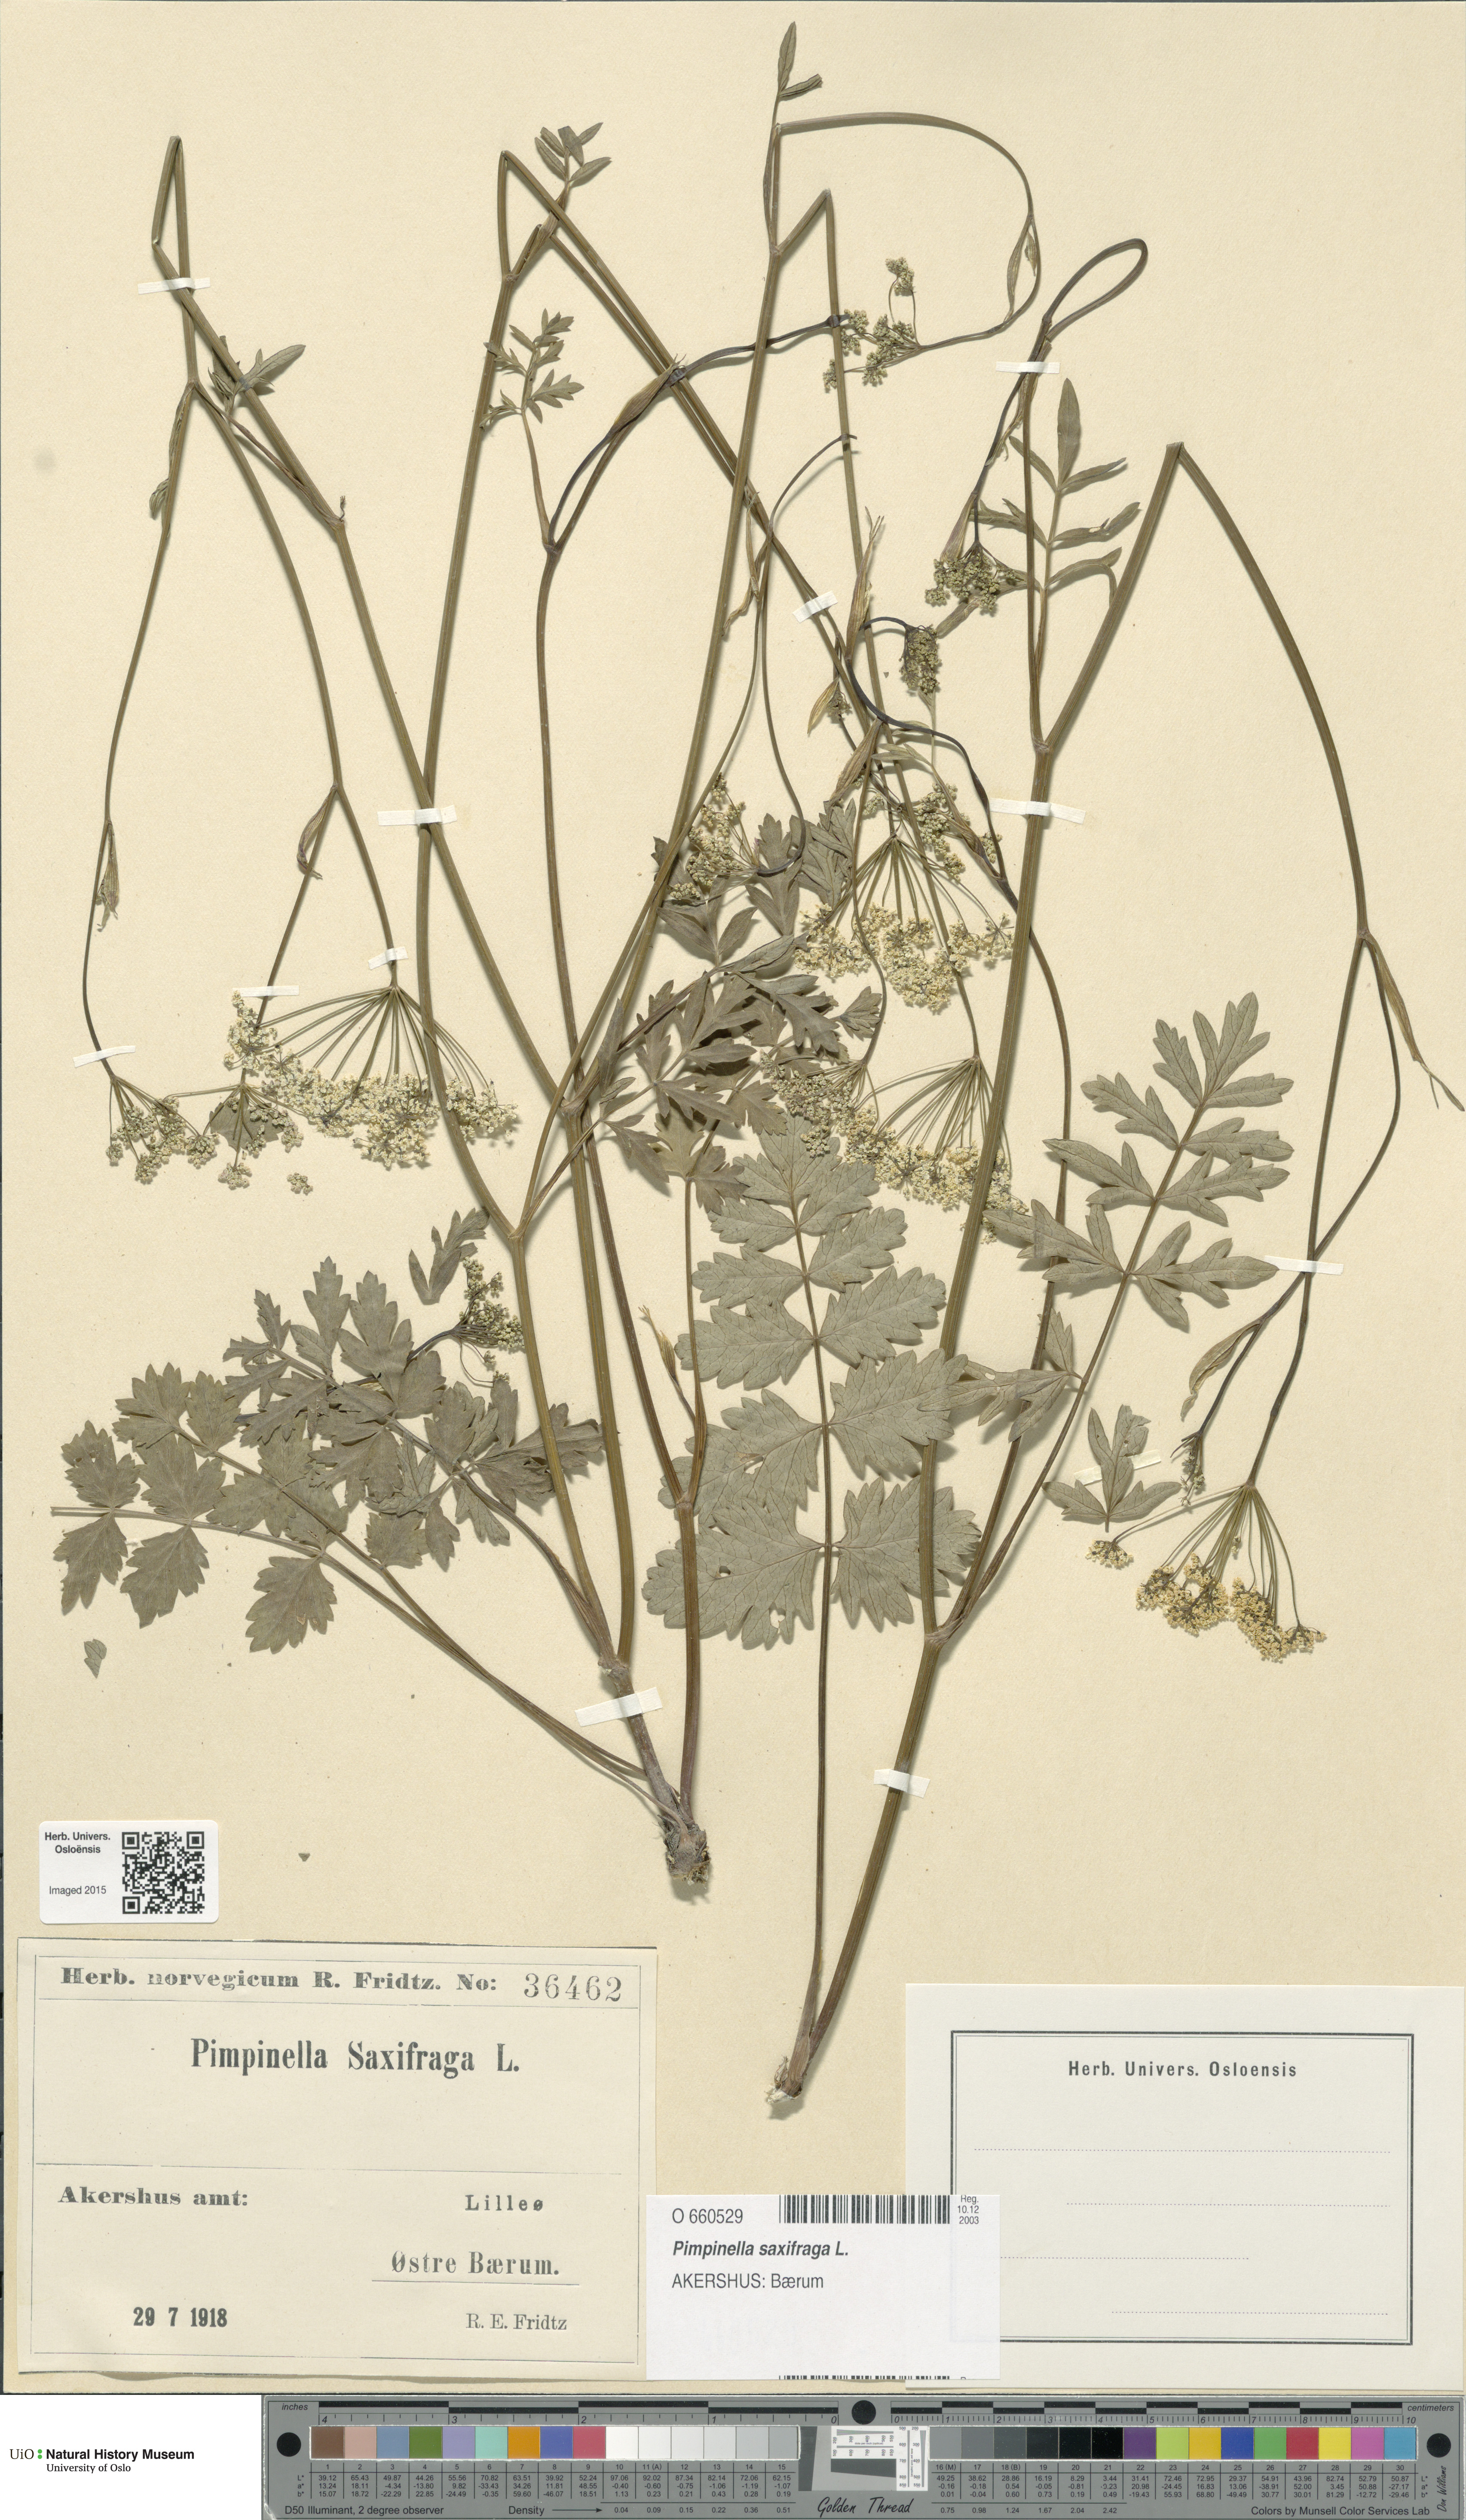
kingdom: Plantae
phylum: Tracheophyta
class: Magnoliopsida
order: Apiales
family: Apiaceae
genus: Pimpinella
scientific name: Pimpinella saxifraga
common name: Burnet-saxifrage
